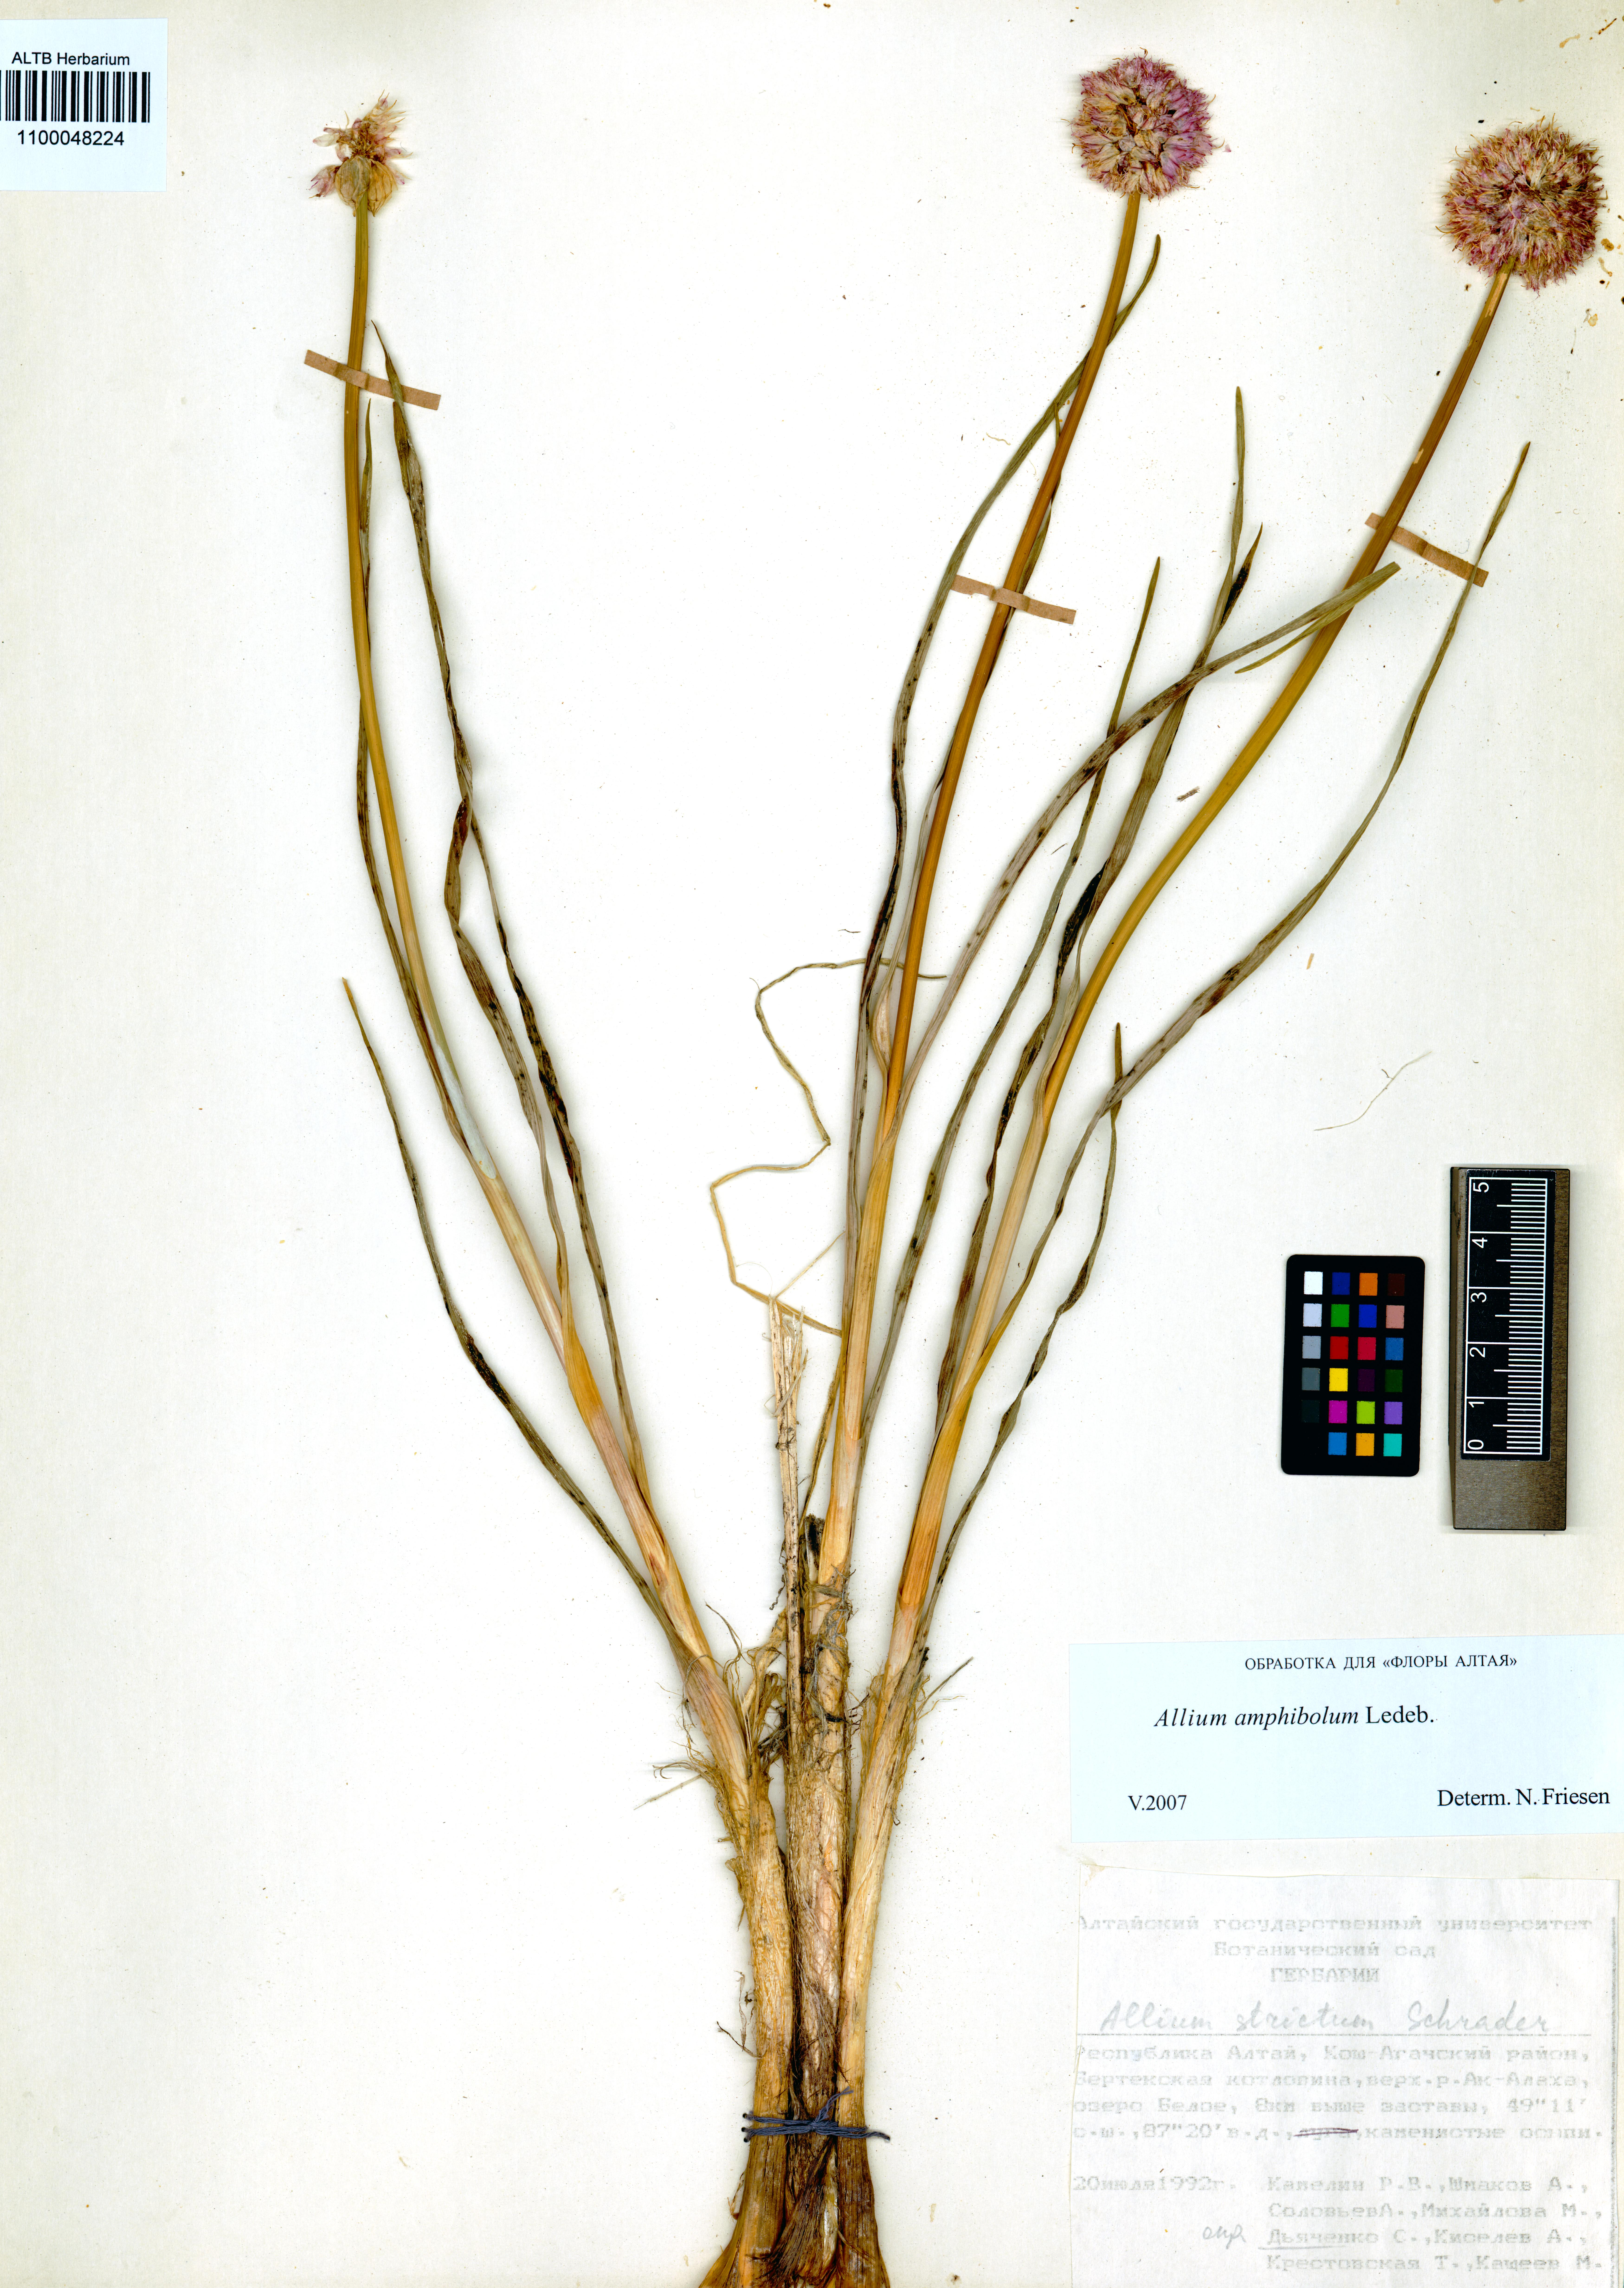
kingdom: Plantae
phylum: Tracheophyta
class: Liliopsida
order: Asparagales
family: Amaryllidaceae
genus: Allium
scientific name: Allium amphibolum
